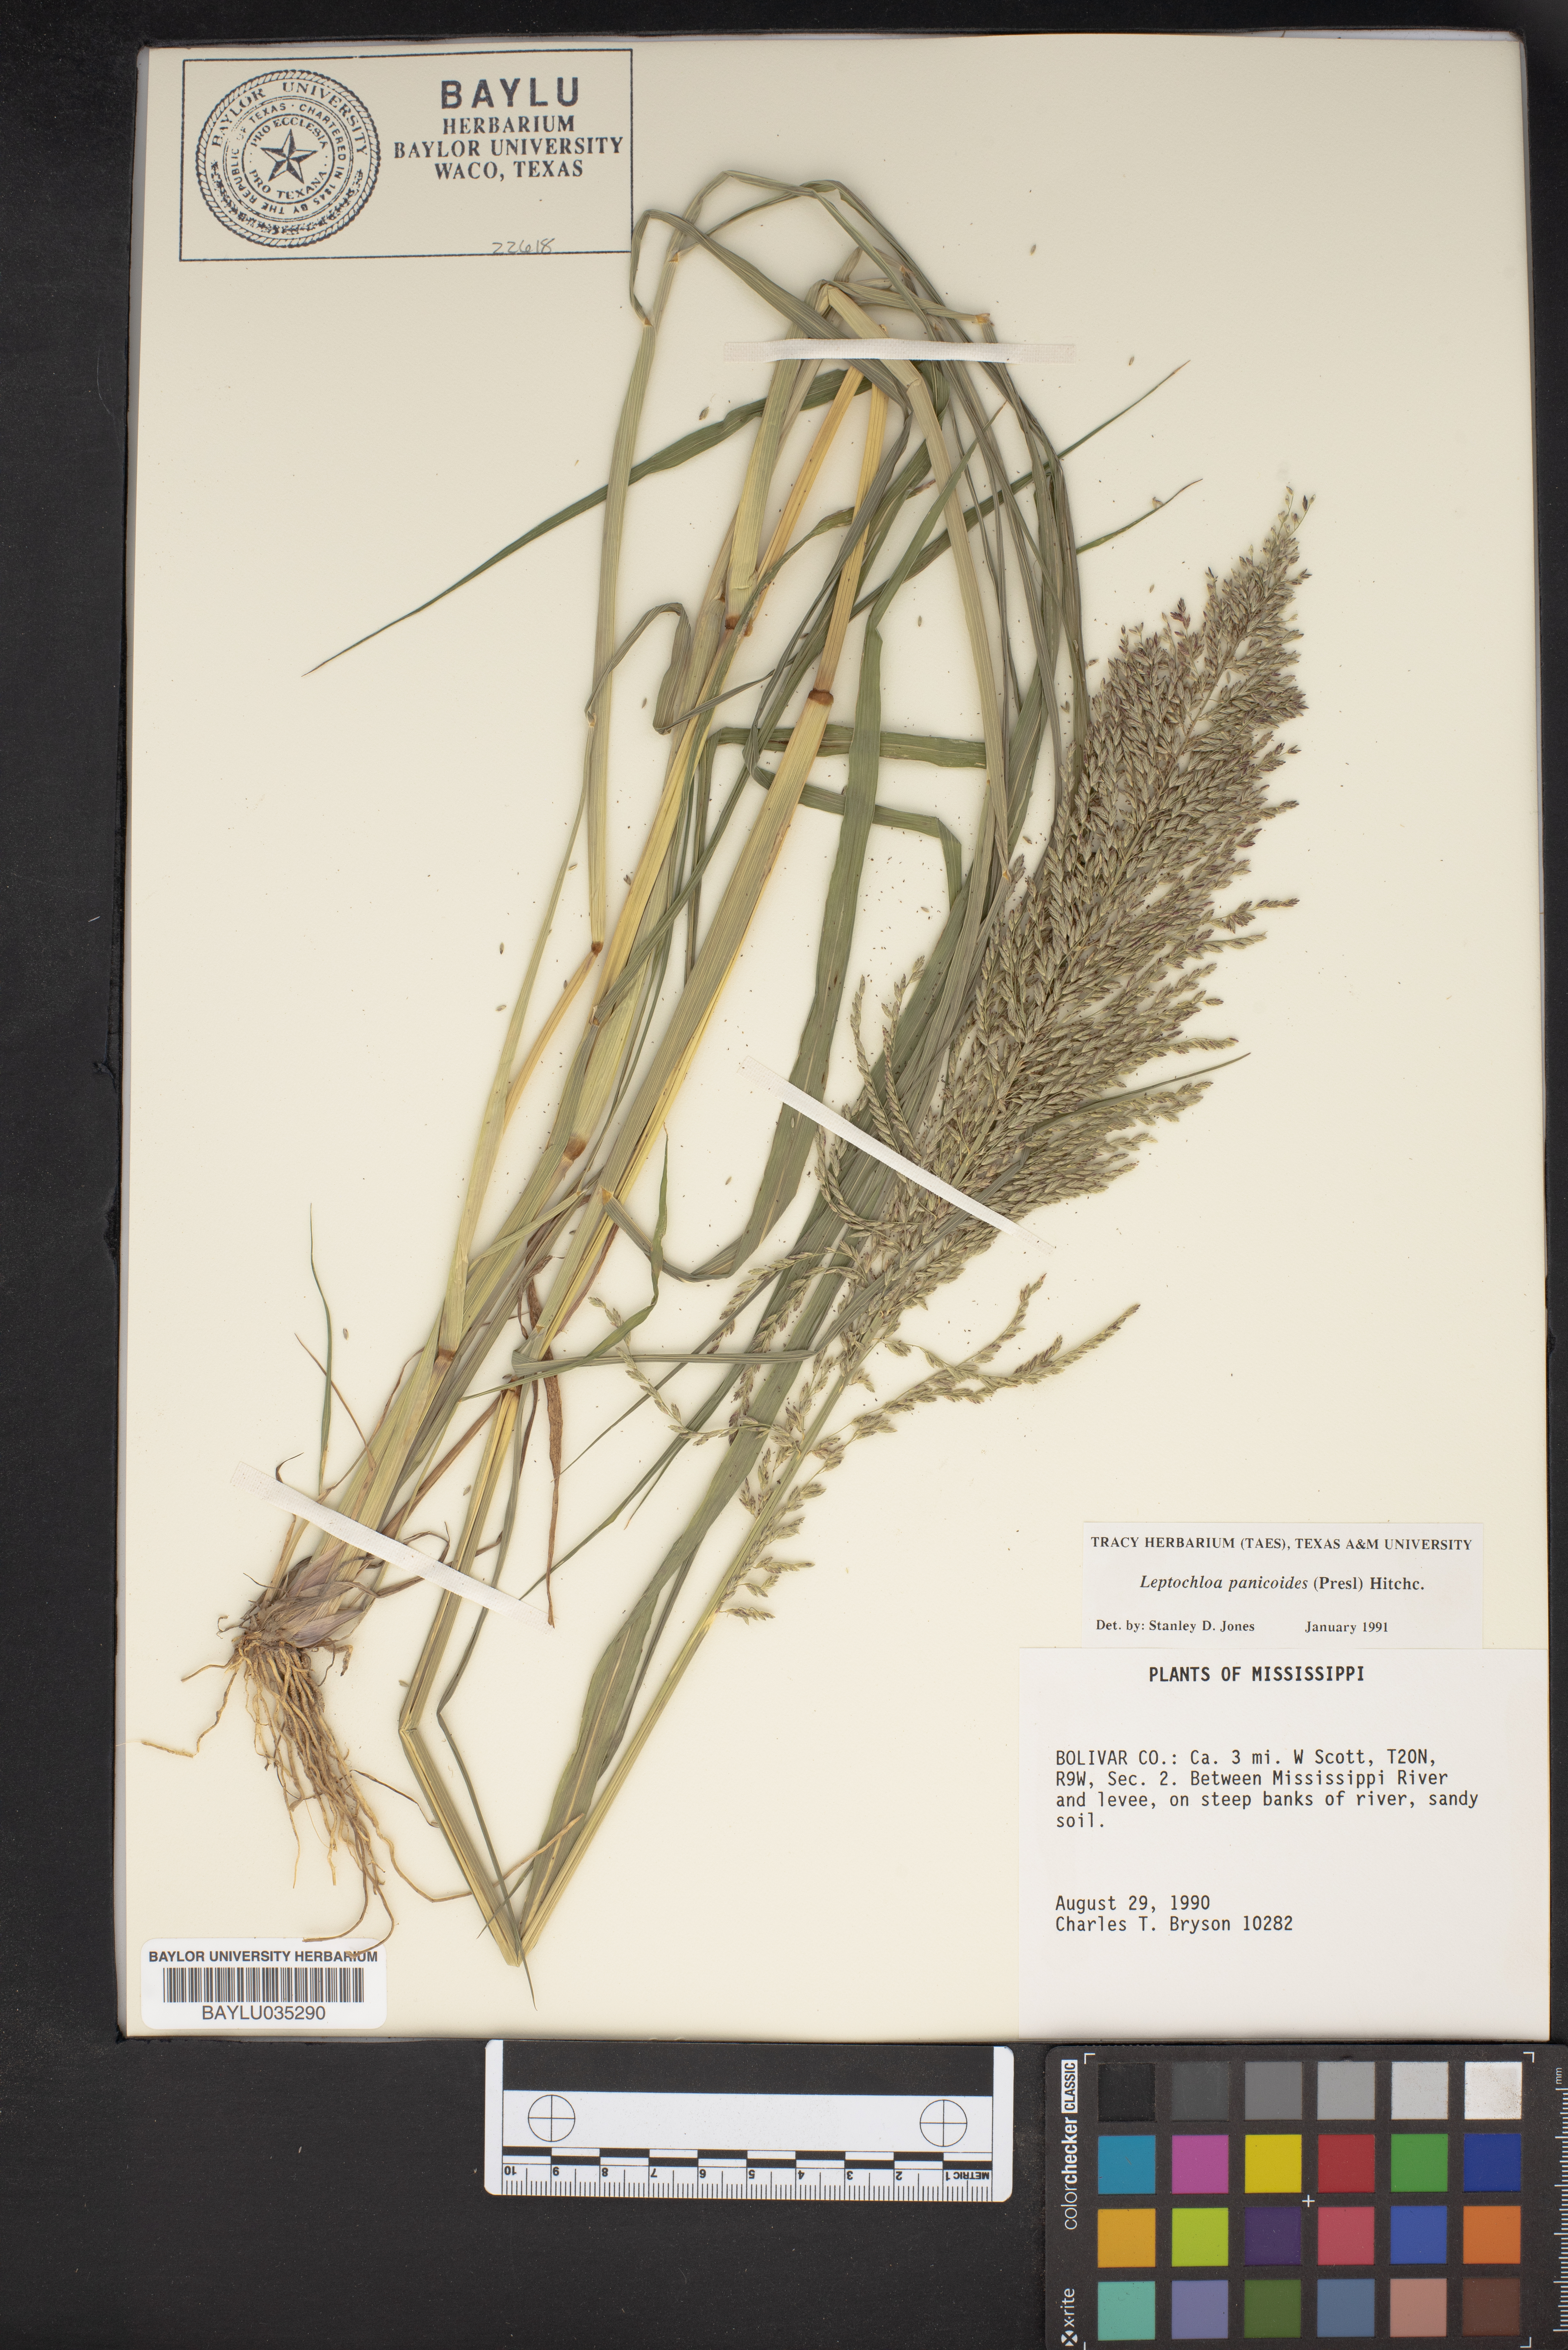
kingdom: Plantae
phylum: Tracheophyta
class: Liliopsida
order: Poales
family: Poaceae
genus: Arundinella
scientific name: Arundinella leptochloa
